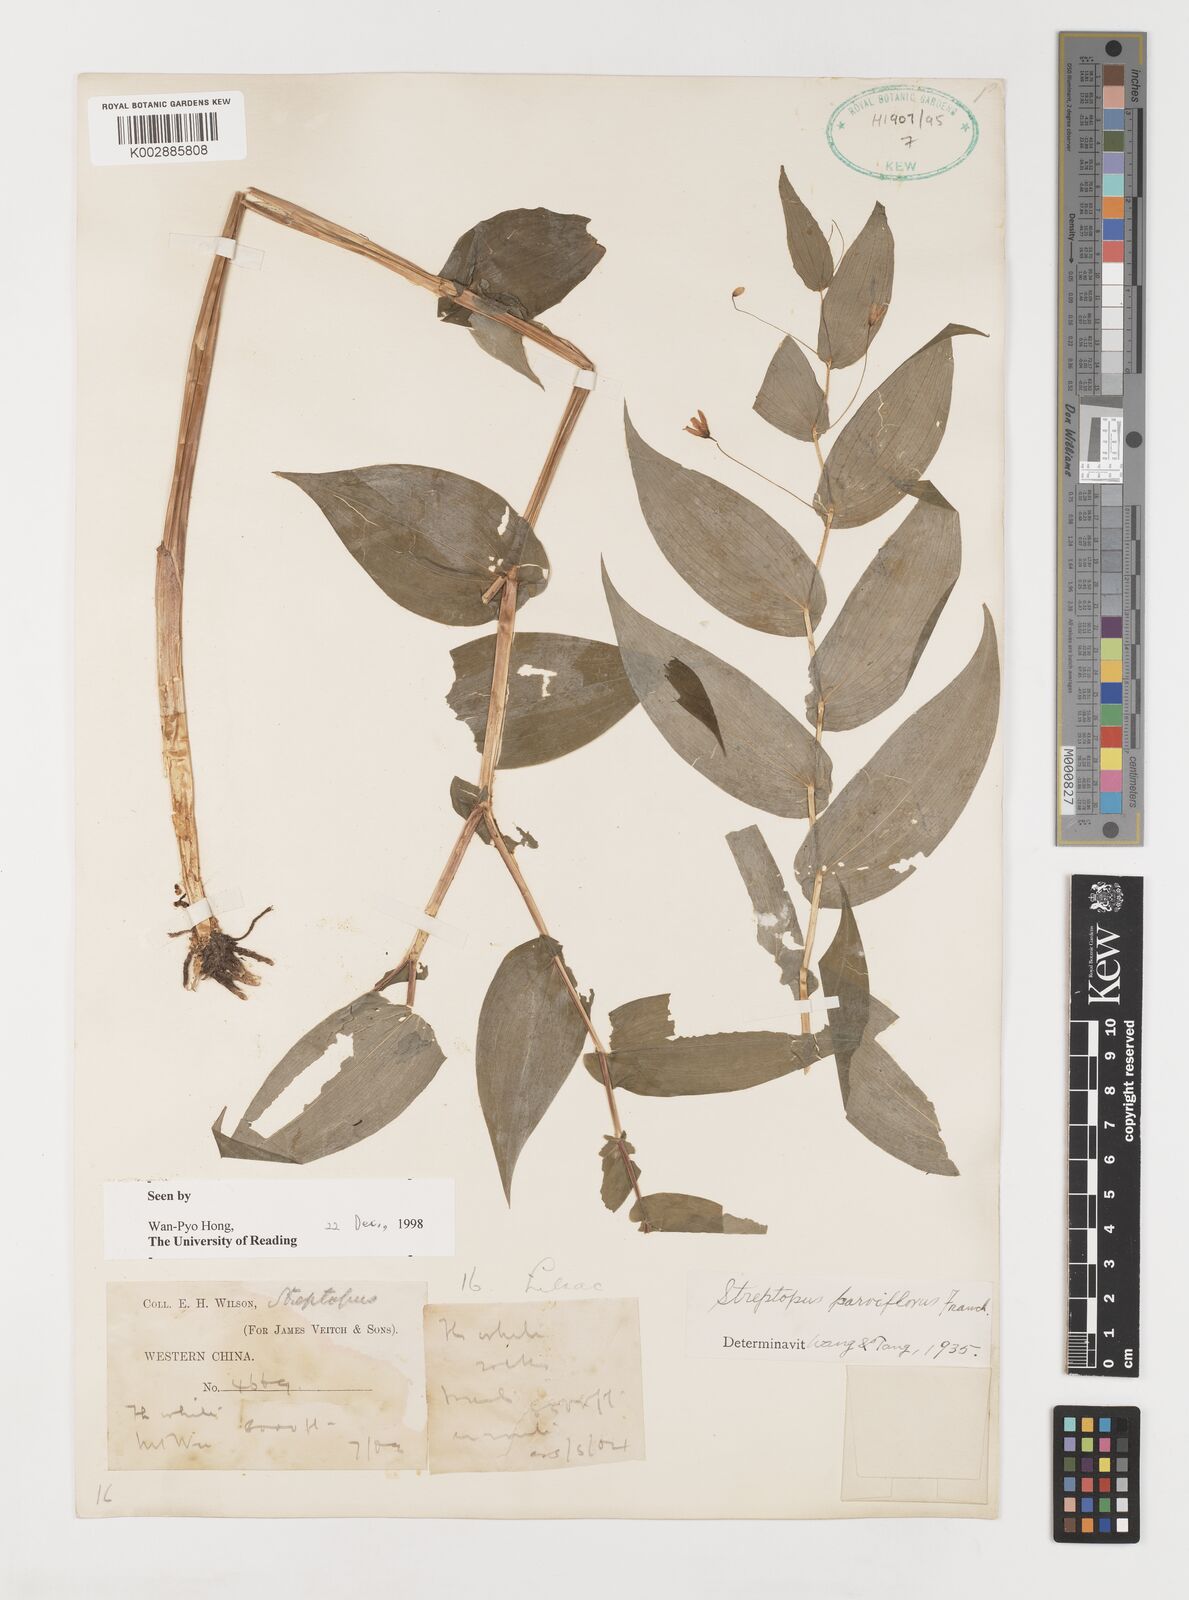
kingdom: Plantae
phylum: Tracheophyta
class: Liliopsida
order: Liliales
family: Liliaceae
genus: Streptopus
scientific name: Streptopus parviflorus
